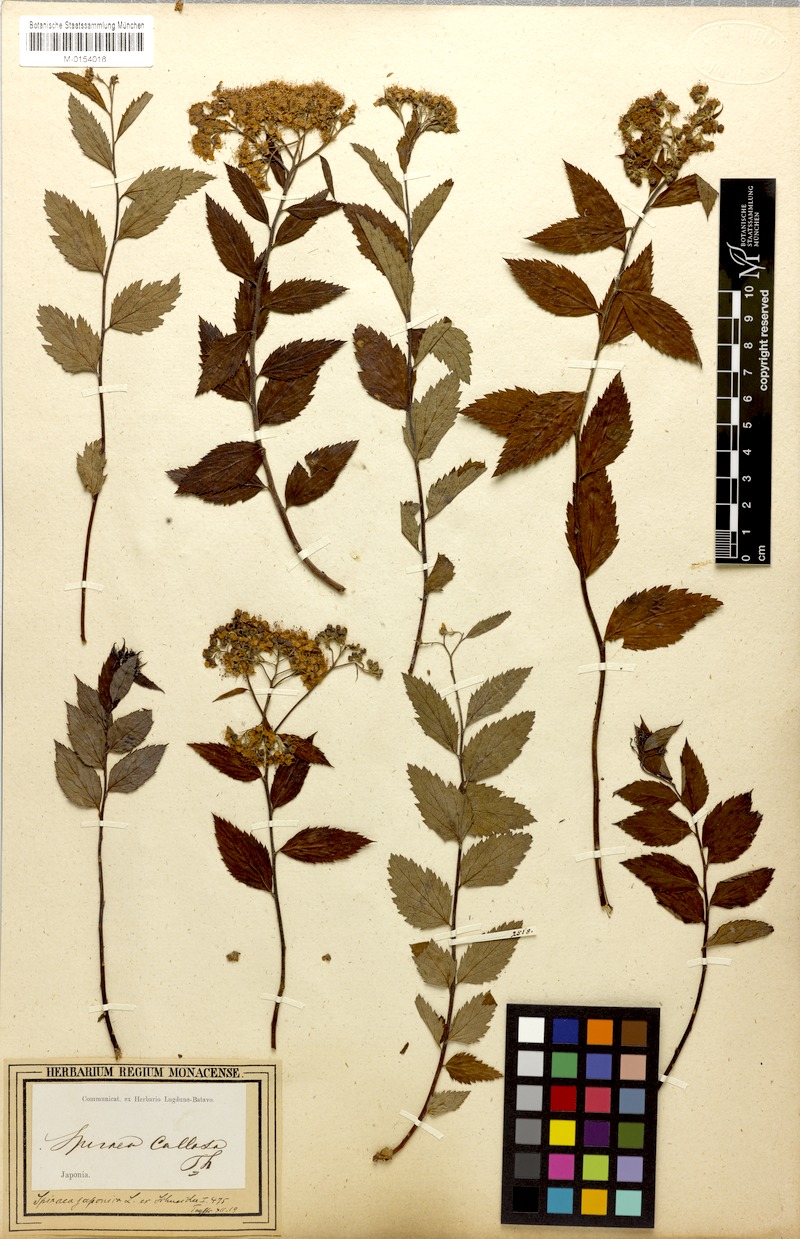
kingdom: Plantae
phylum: Tracheophyta
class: Magnoliopsida
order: Rosales
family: Rosaceae
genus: Spiraea
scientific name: Spiraea japonica
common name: Japanese spiraea
